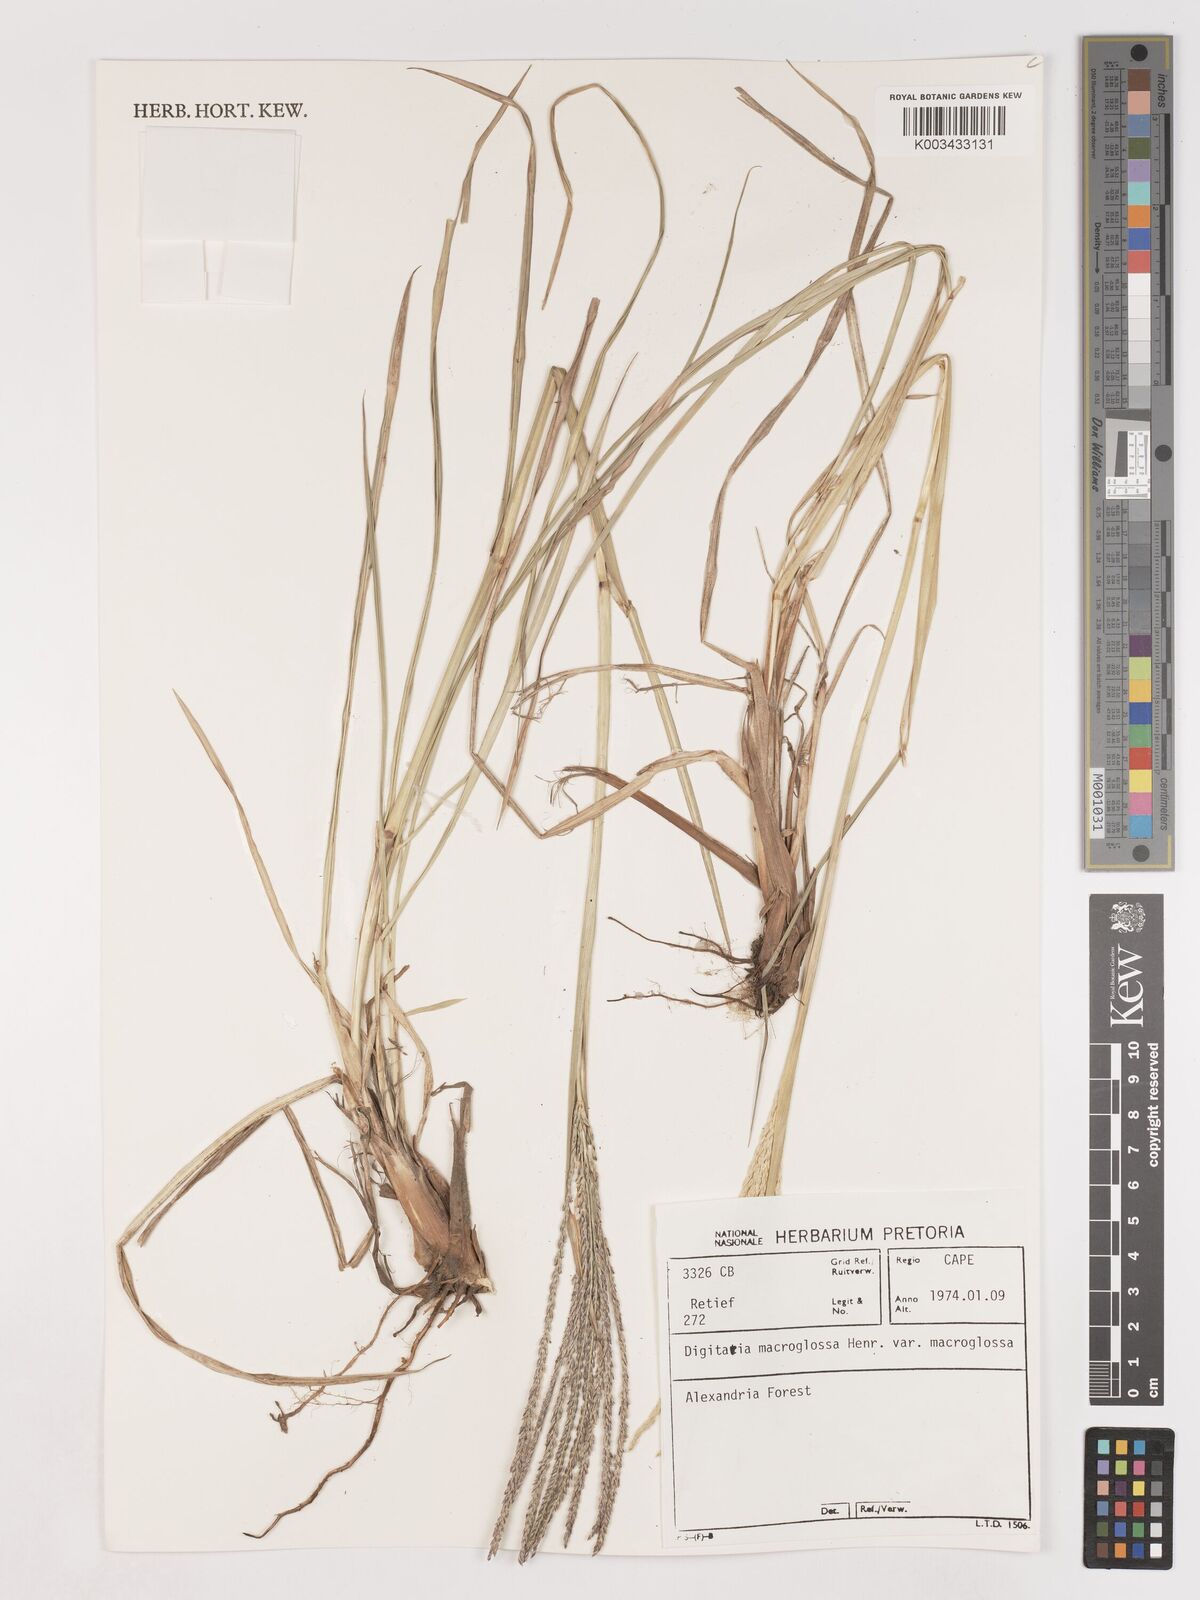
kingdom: Plantae
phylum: Tracheophyta
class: Liliopsida
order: Poales
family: Poaceae
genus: Digitaria
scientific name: Digitaria natalensis
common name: Coast finger grass
